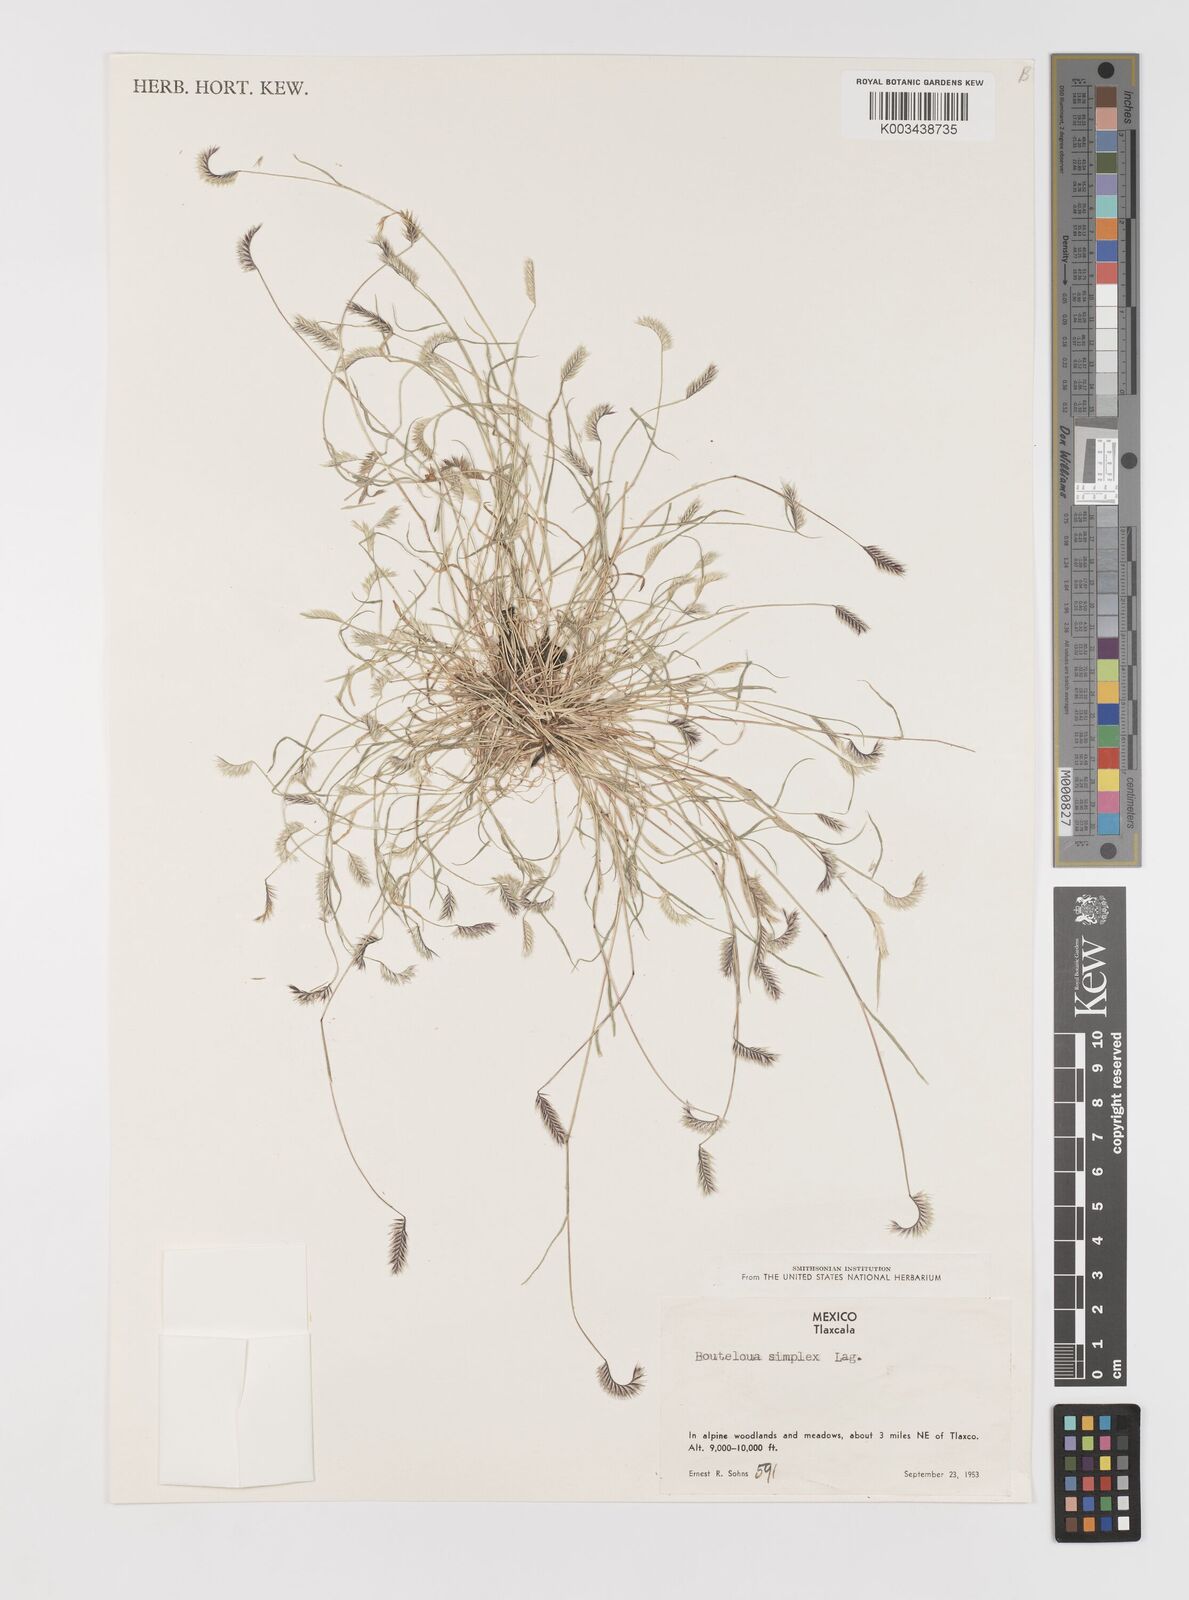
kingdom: Plantae
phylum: Tracheophyta
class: Liliopsida
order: Poales
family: Poaceae
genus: Bouteloua
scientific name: Bouteloua simplex
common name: Mat grama
